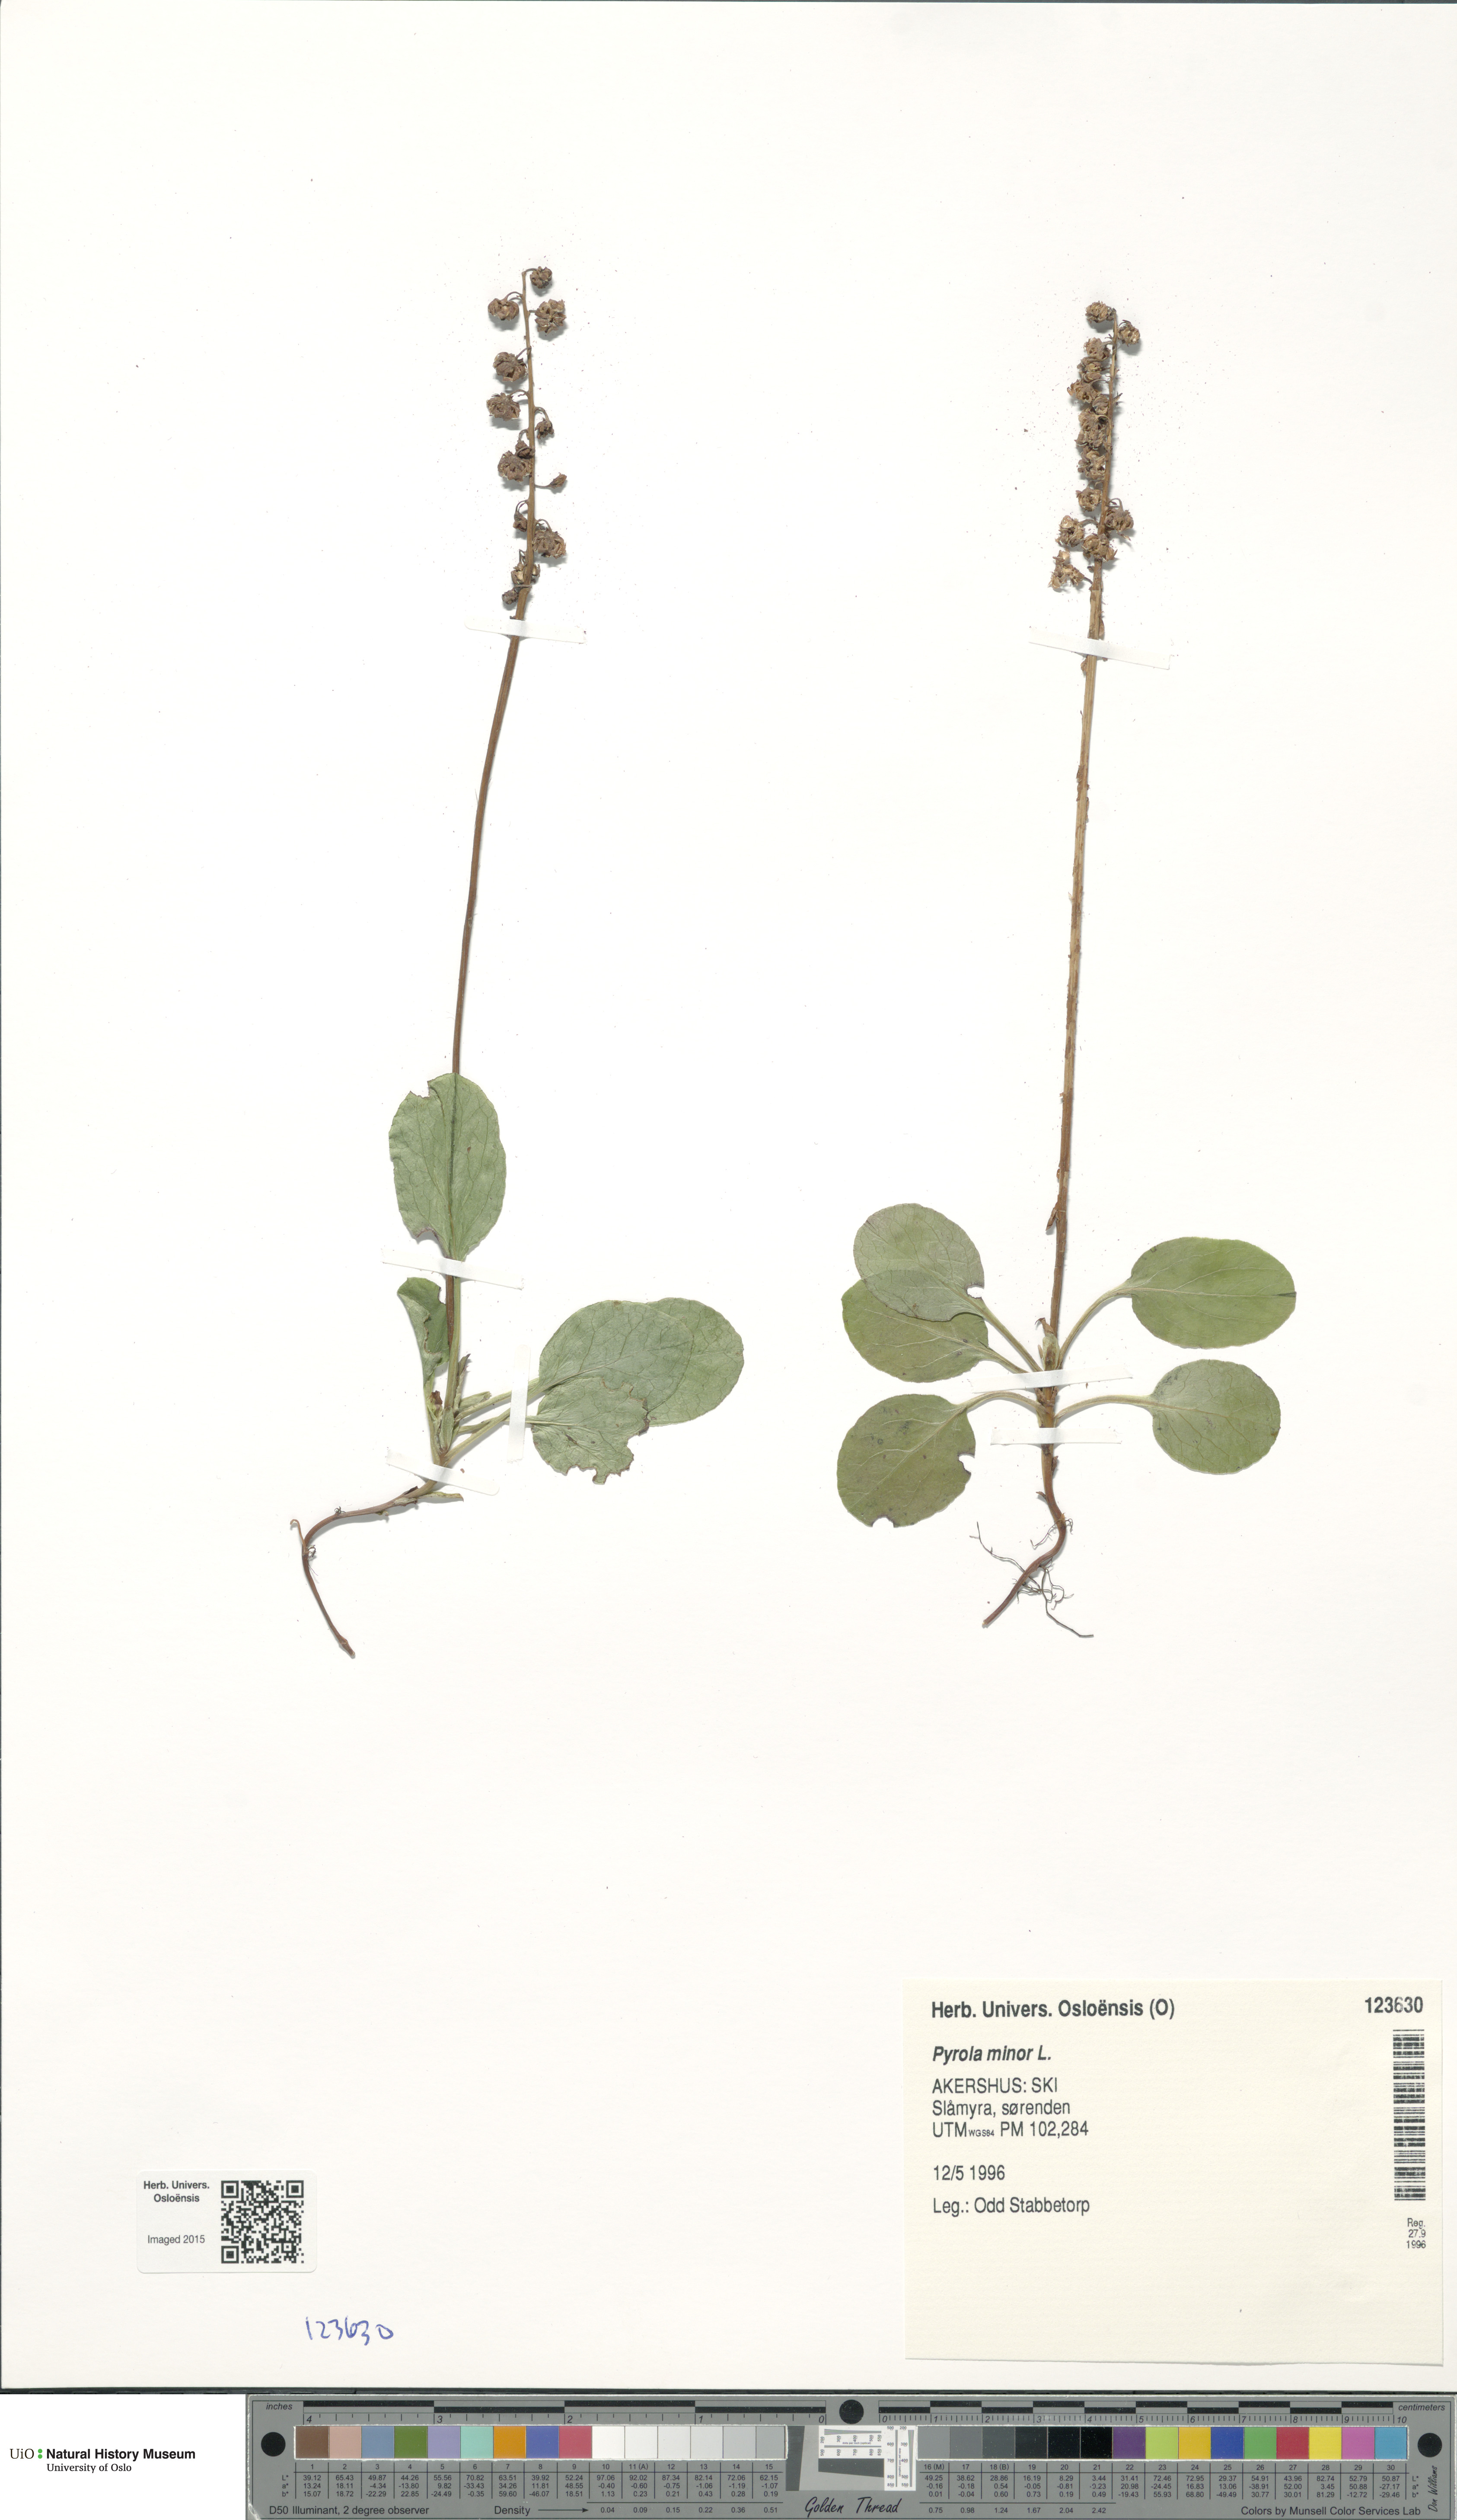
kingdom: Plantae
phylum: Tracheophyta
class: Magnoliopsida
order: Ericales
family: Ericaceae
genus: Pyrola
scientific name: Pyrola minor
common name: Common wintergreen
